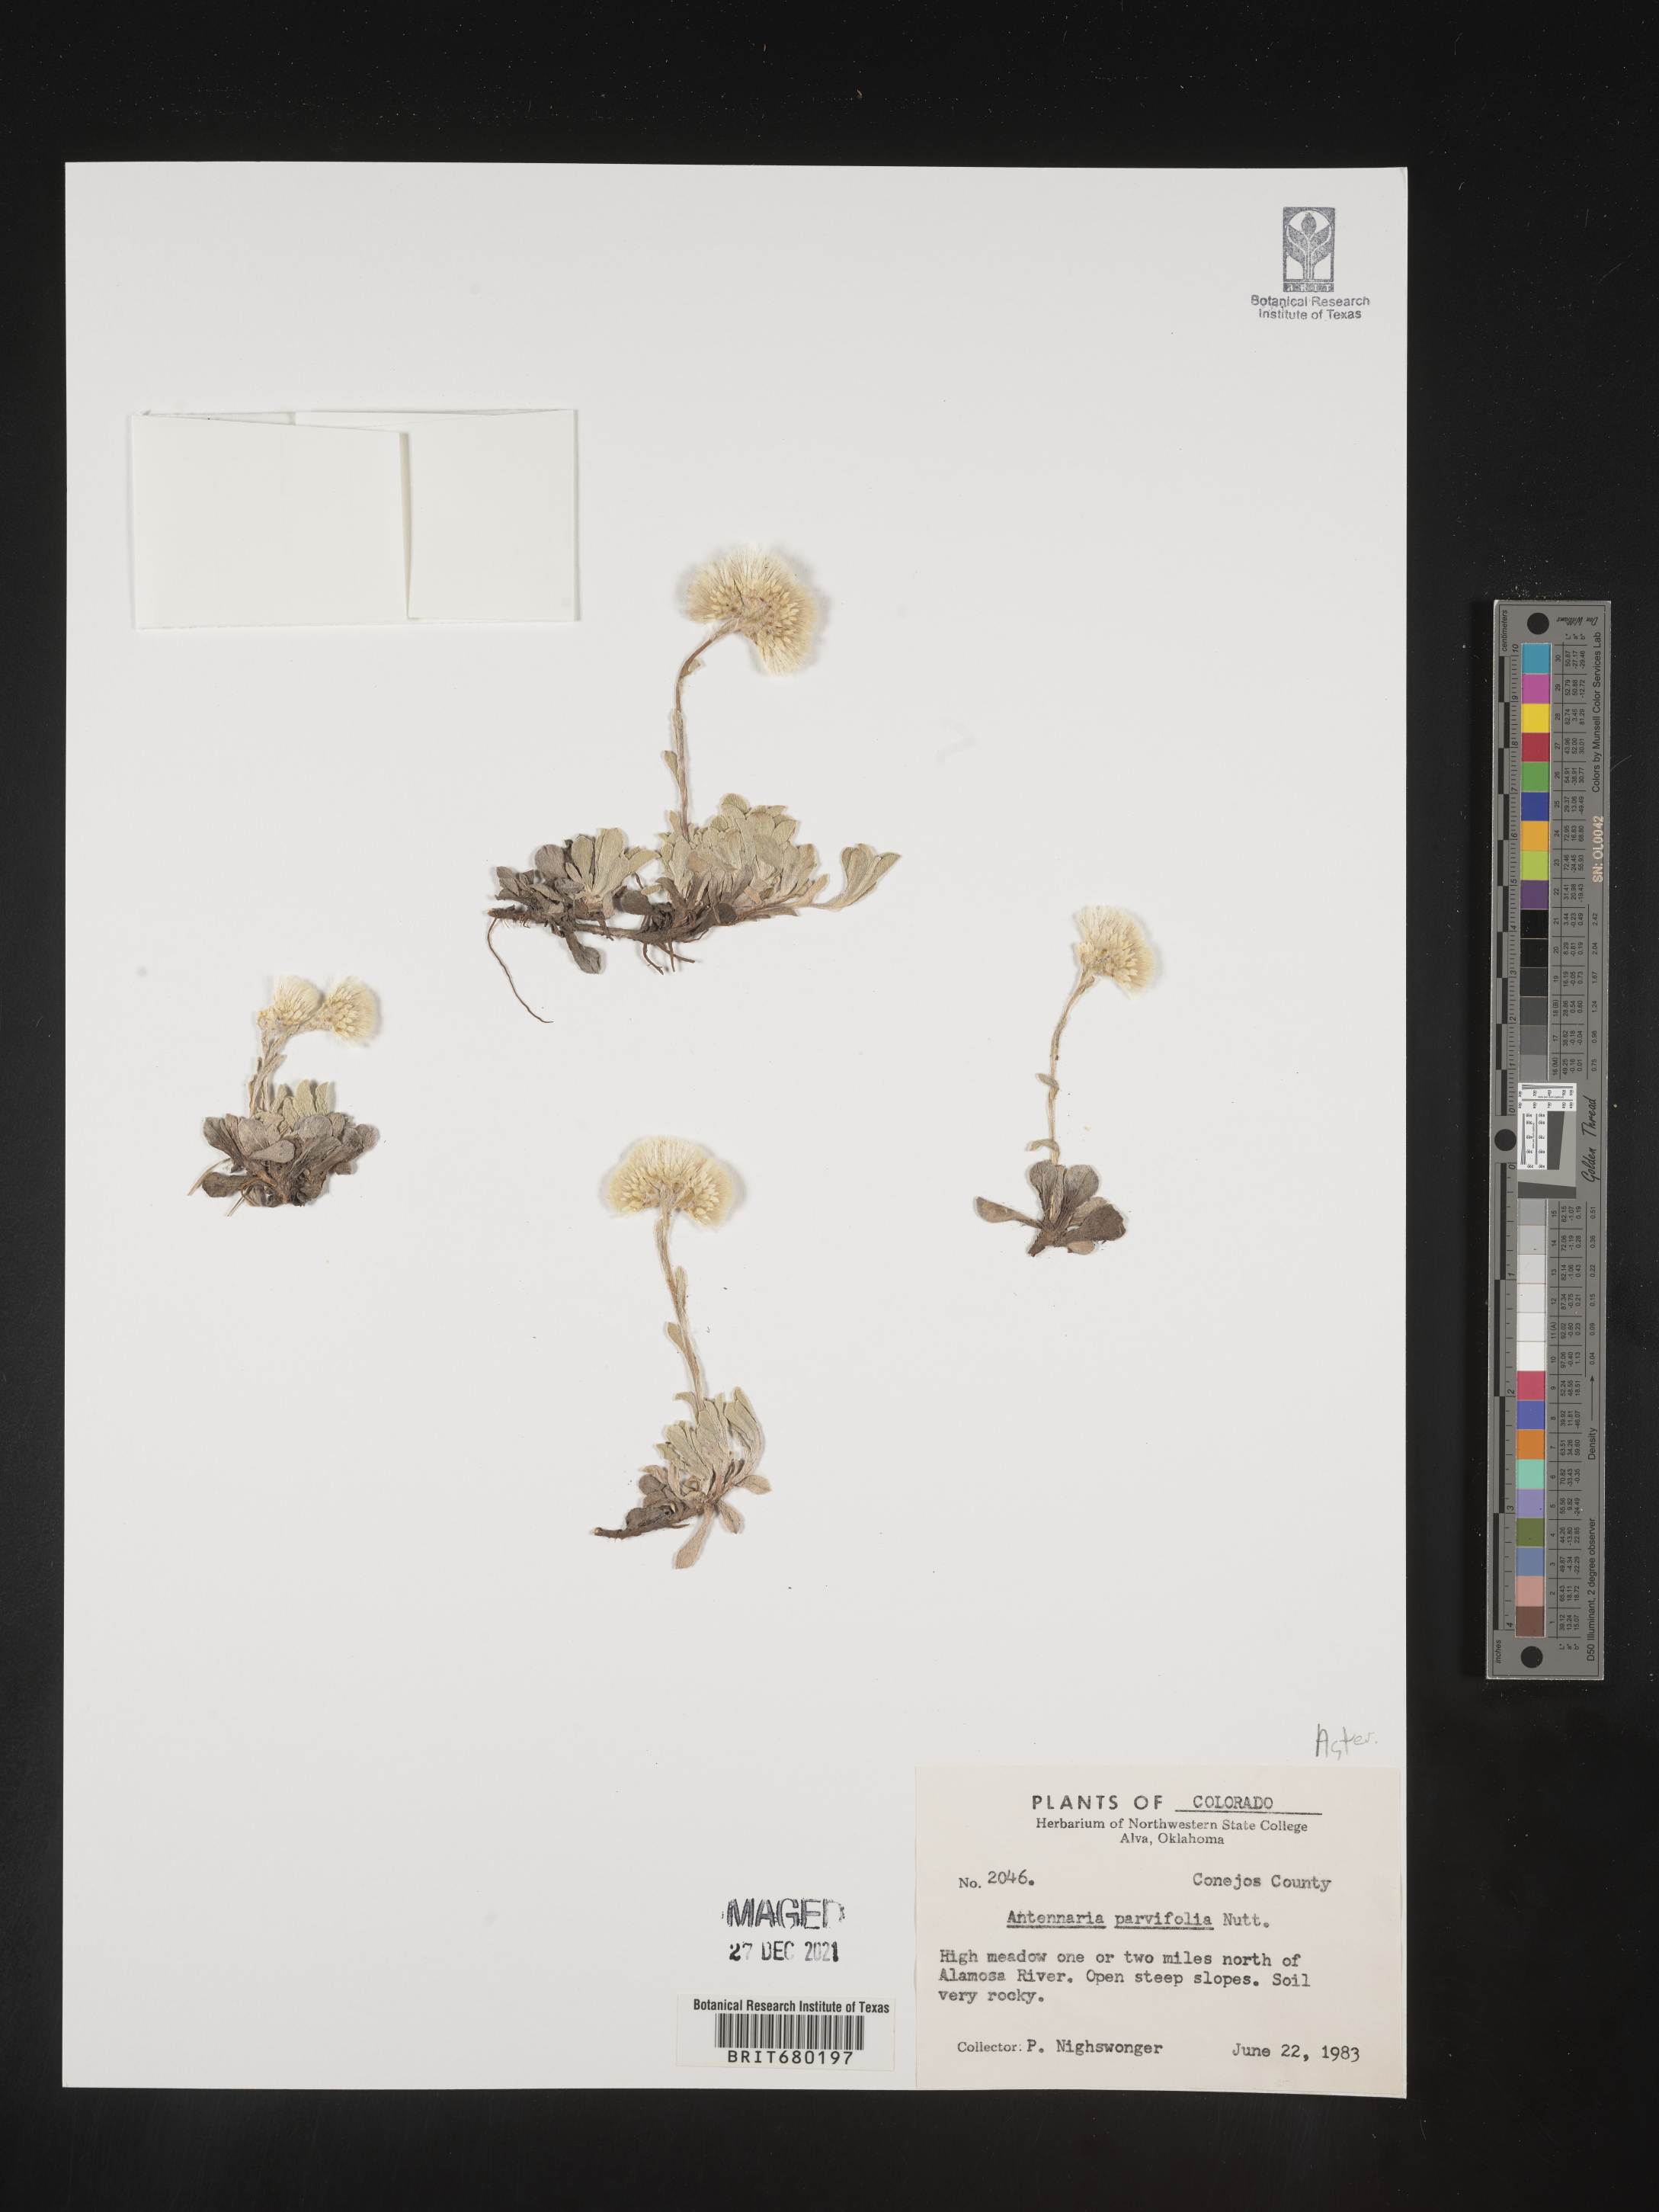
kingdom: Plantae
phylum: Tracheophyta
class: Magnoliopsida
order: Asterales
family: Asteraceae
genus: Antennaria
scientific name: Antennaria plantaginifolia
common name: Plantain-leaved pussytoes
